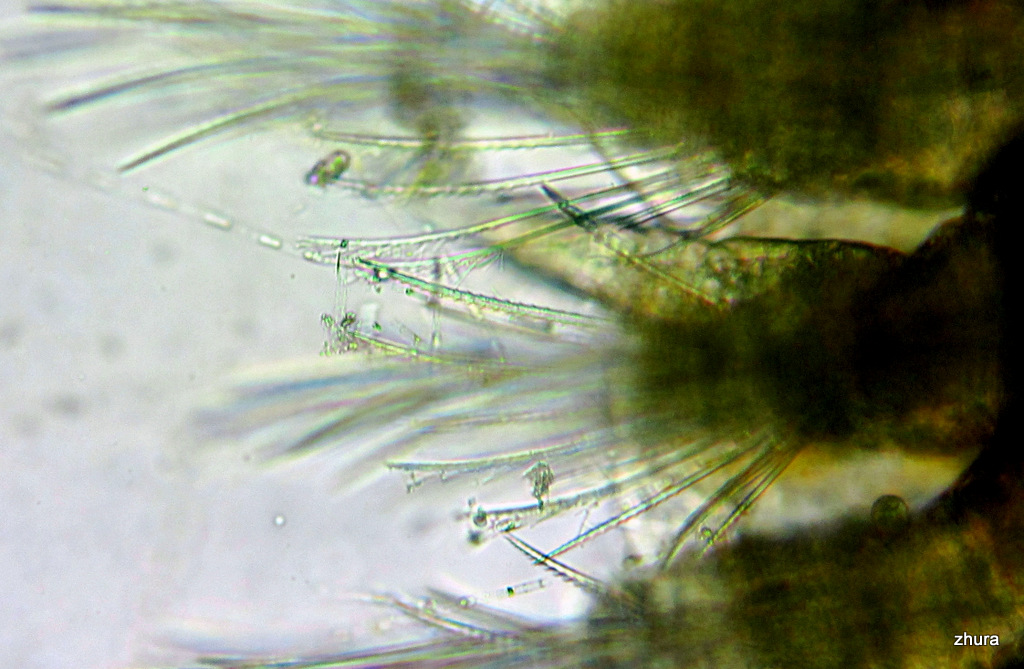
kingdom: Animalia
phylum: Annelida
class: Polychaeta
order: Phyllodocida
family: Polynoidae
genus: Lepidonotus
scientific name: Lepidonotus squamatus
